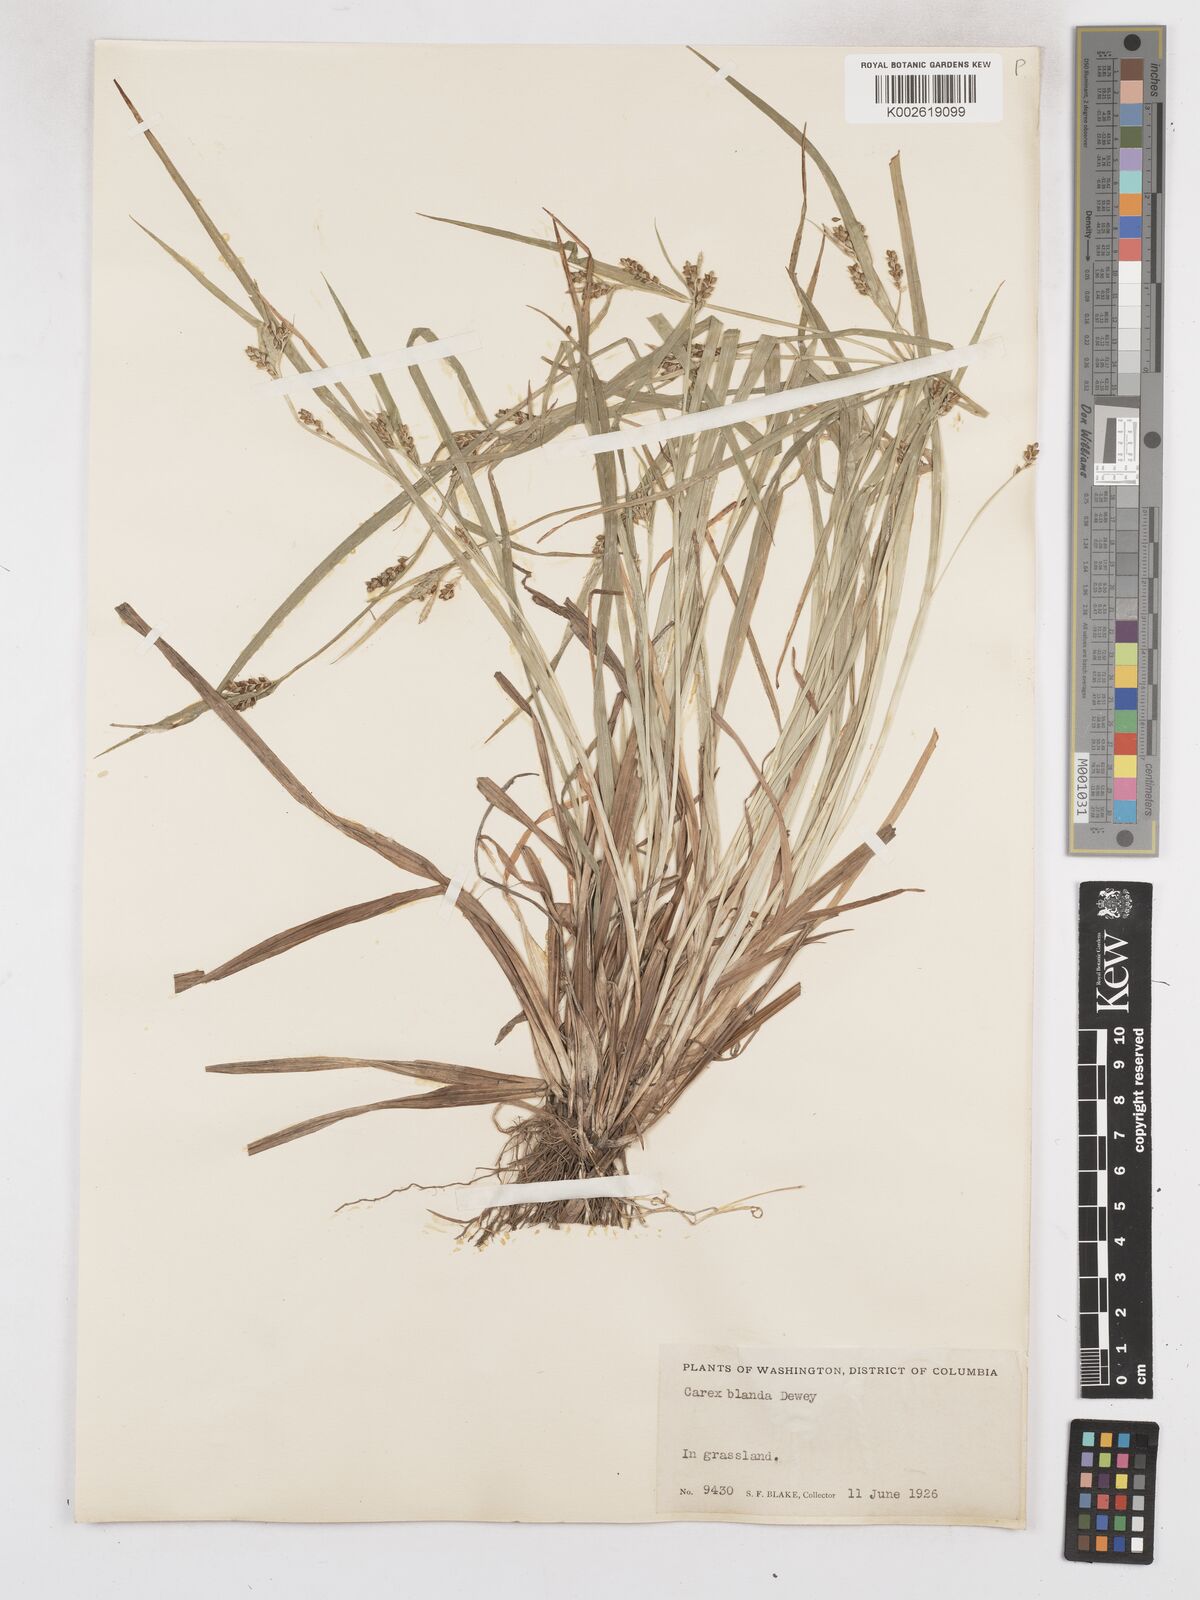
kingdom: Plantae
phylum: Tracheophyta
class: Liliopsida
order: Poales
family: Cyperaceae
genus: Carex
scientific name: Carex blanda
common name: Bland sedge
